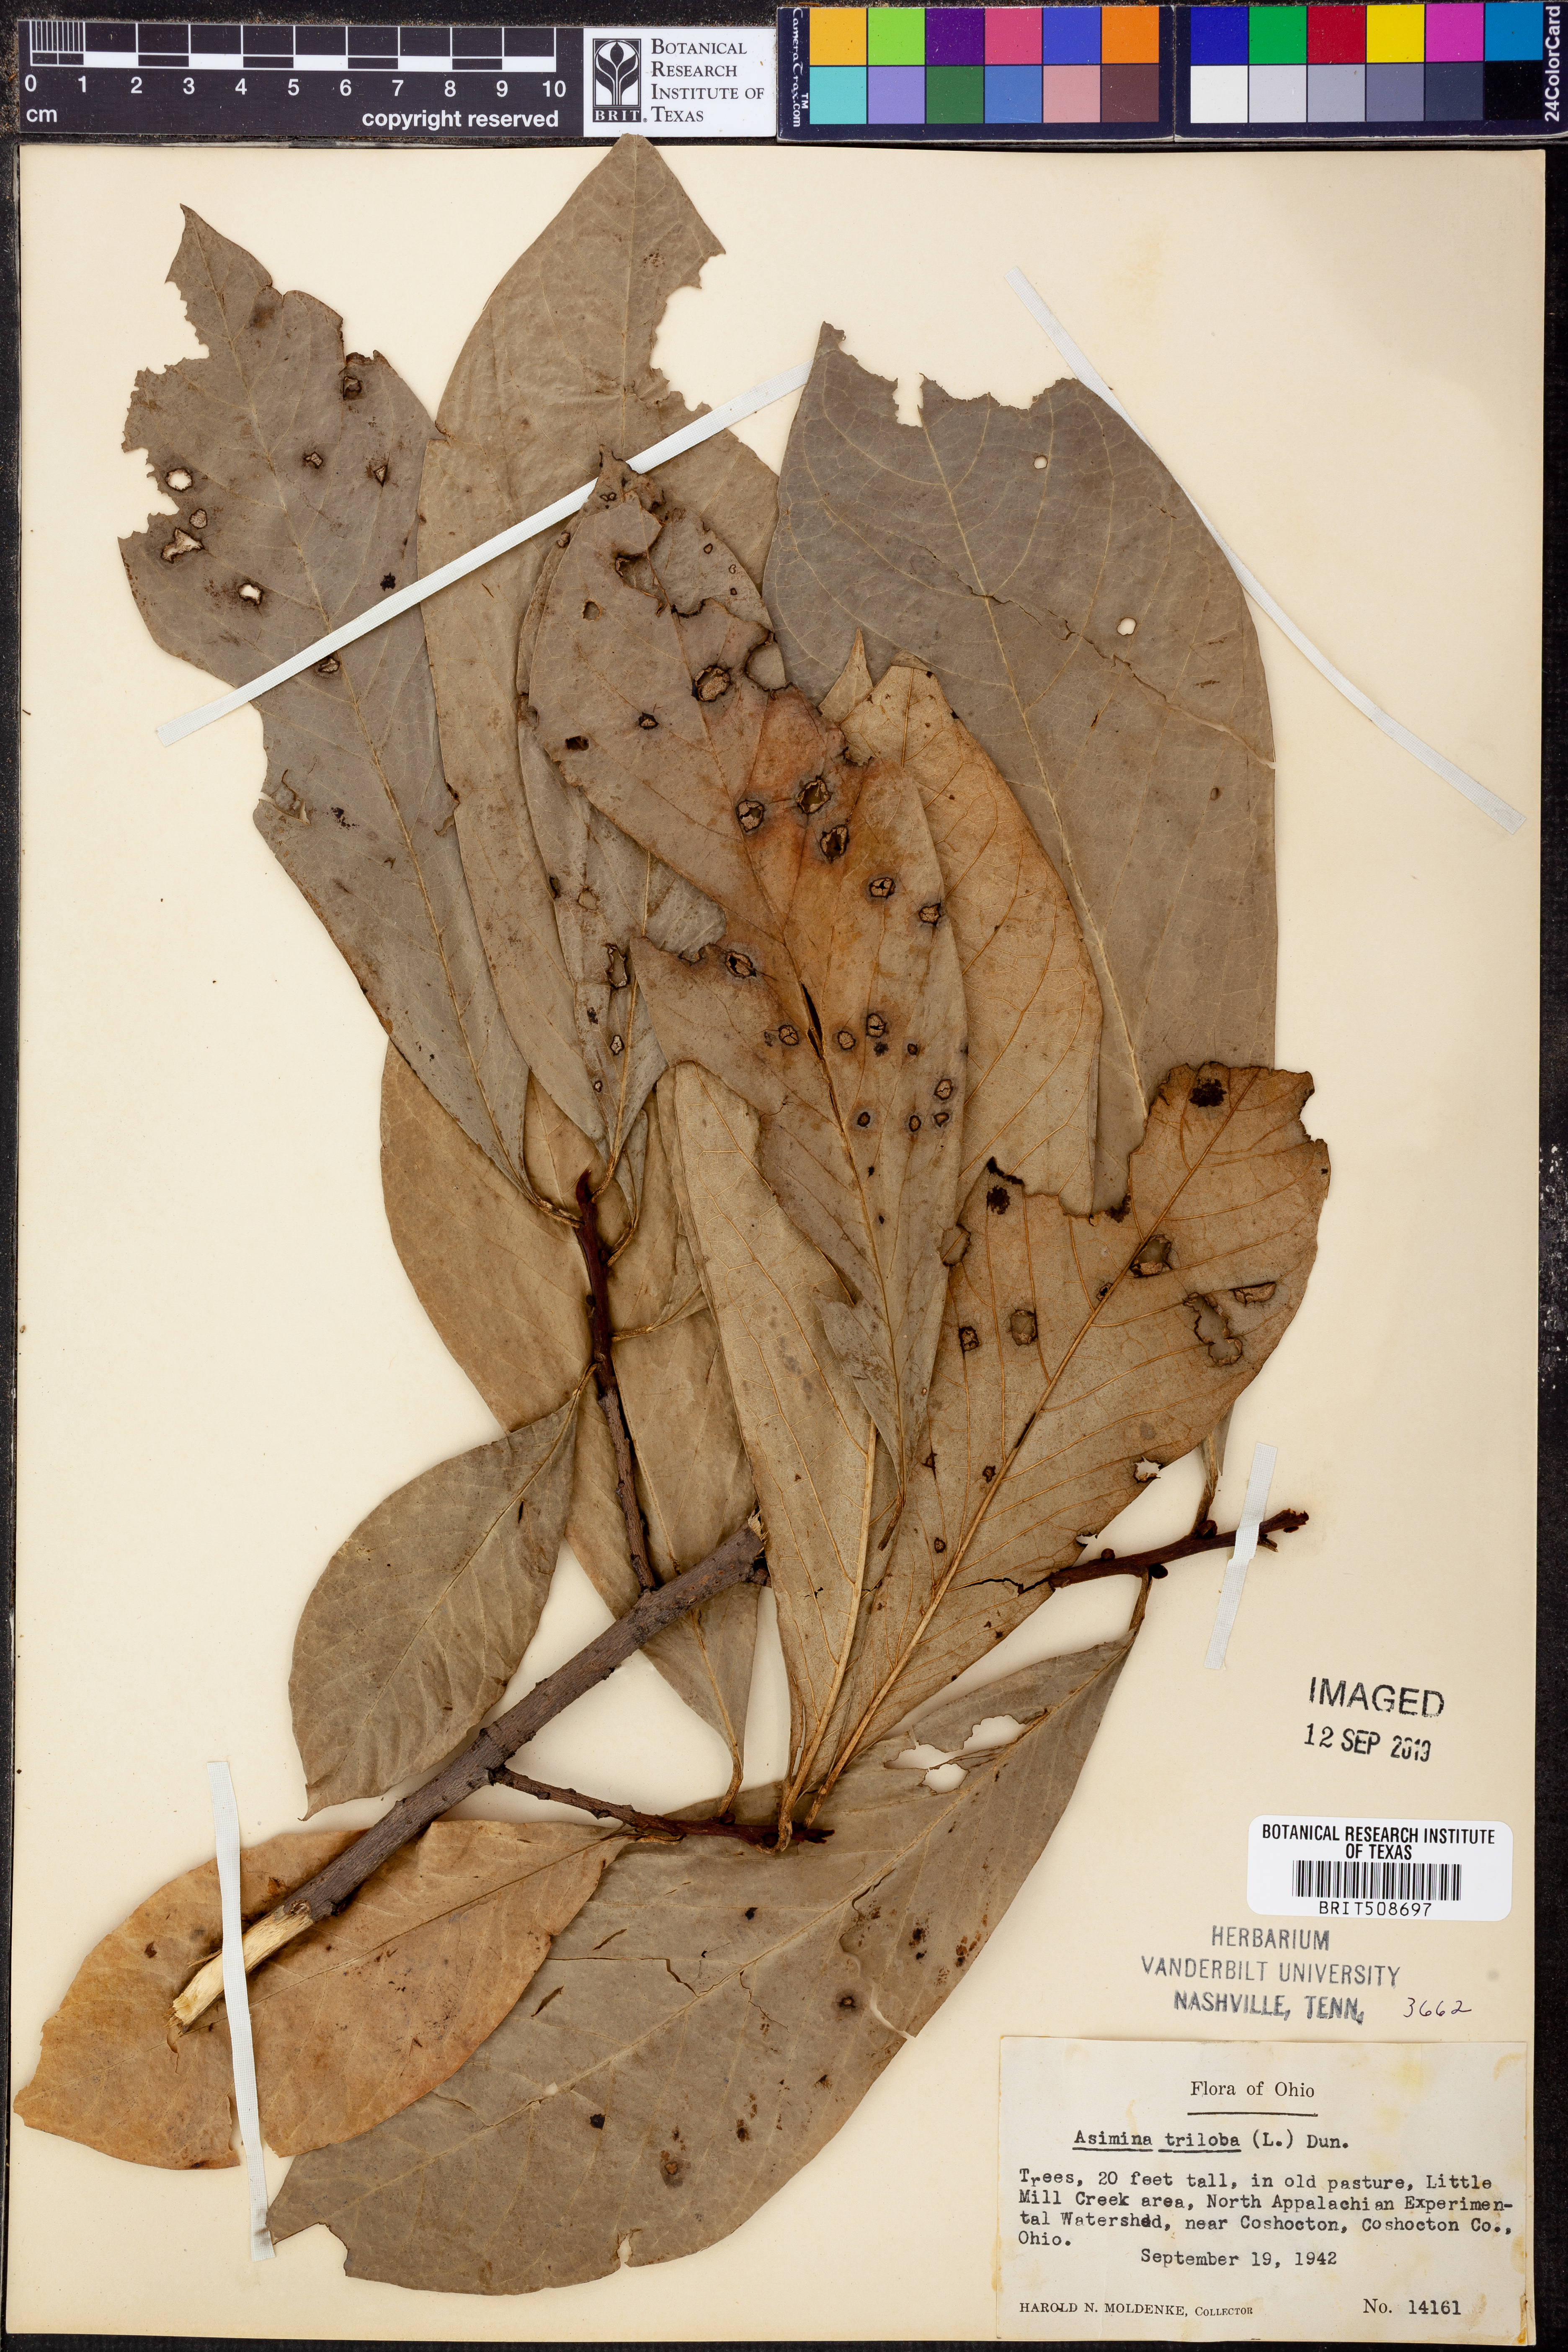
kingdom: Plantae
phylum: Tracheophyta
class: Magnoliopsida
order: Magnoliales
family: Annonaceae
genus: Asimina
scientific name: Asimina triloba
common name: Dog-banana
